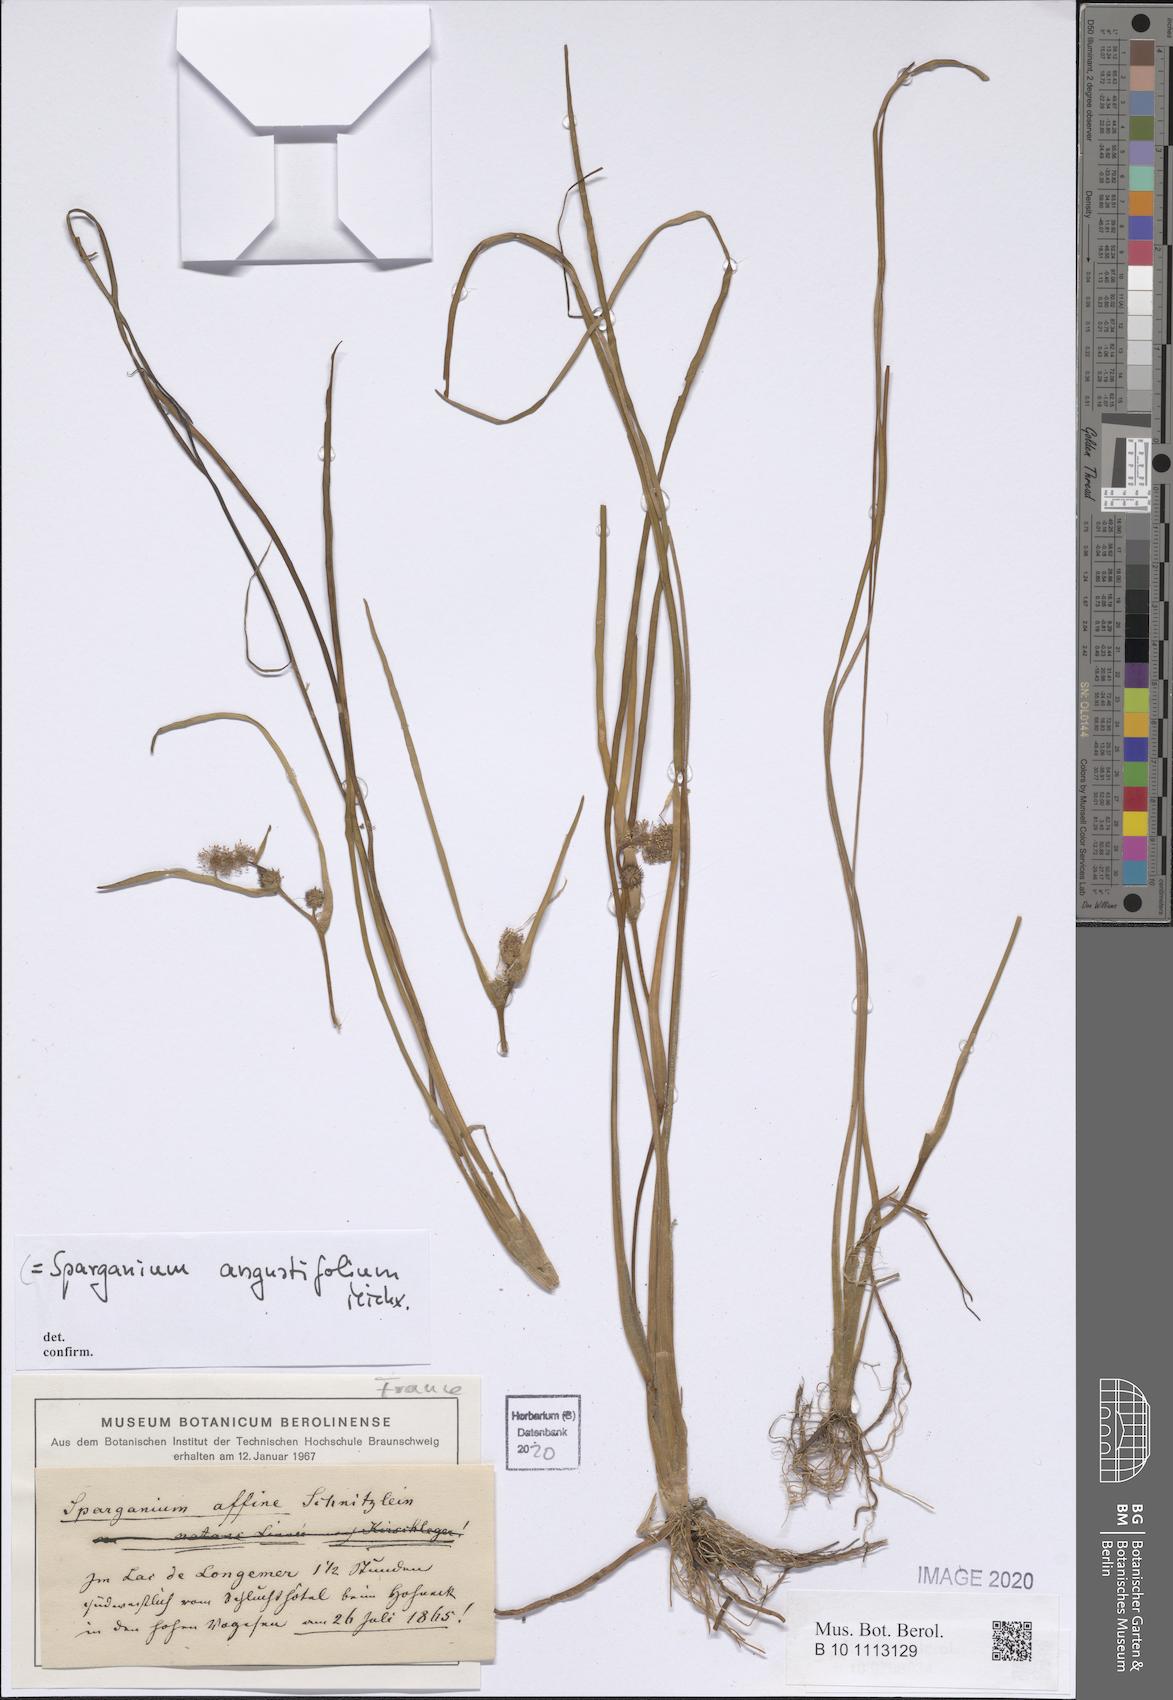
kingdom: Plantae
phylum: Tracheophyta
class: Liliopsida
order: Poales
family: Typhaceae
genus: Sparganium
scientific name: Sparganium angustifolium
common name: Floating bur-reed
